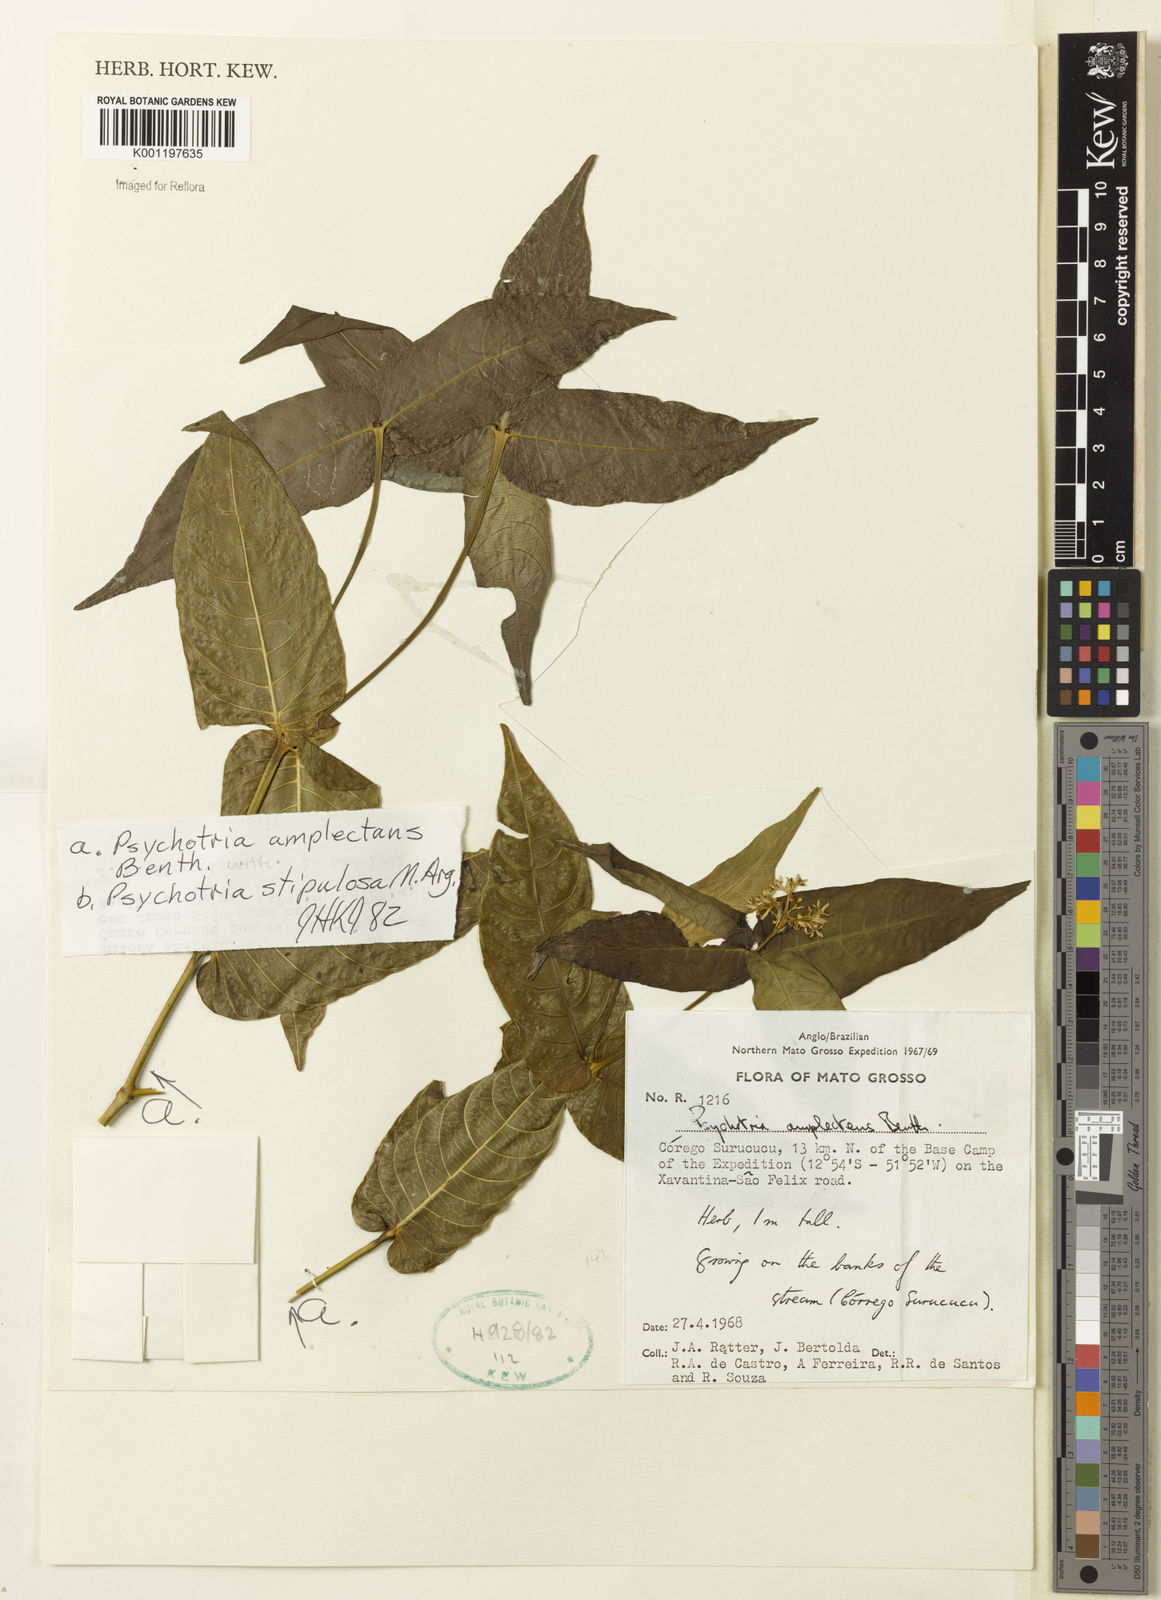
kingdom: Plantae
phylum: Tracheophyta
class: Magnoliopsida
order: Gentianales
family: Rubiaceae
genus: Psychotria
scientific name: Psychotria
